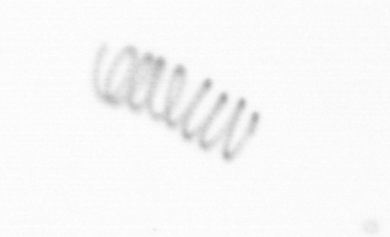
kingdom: Chromista
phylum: Ochrophyta
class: Bacillariophyceae
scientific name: Bacillariophyceae
